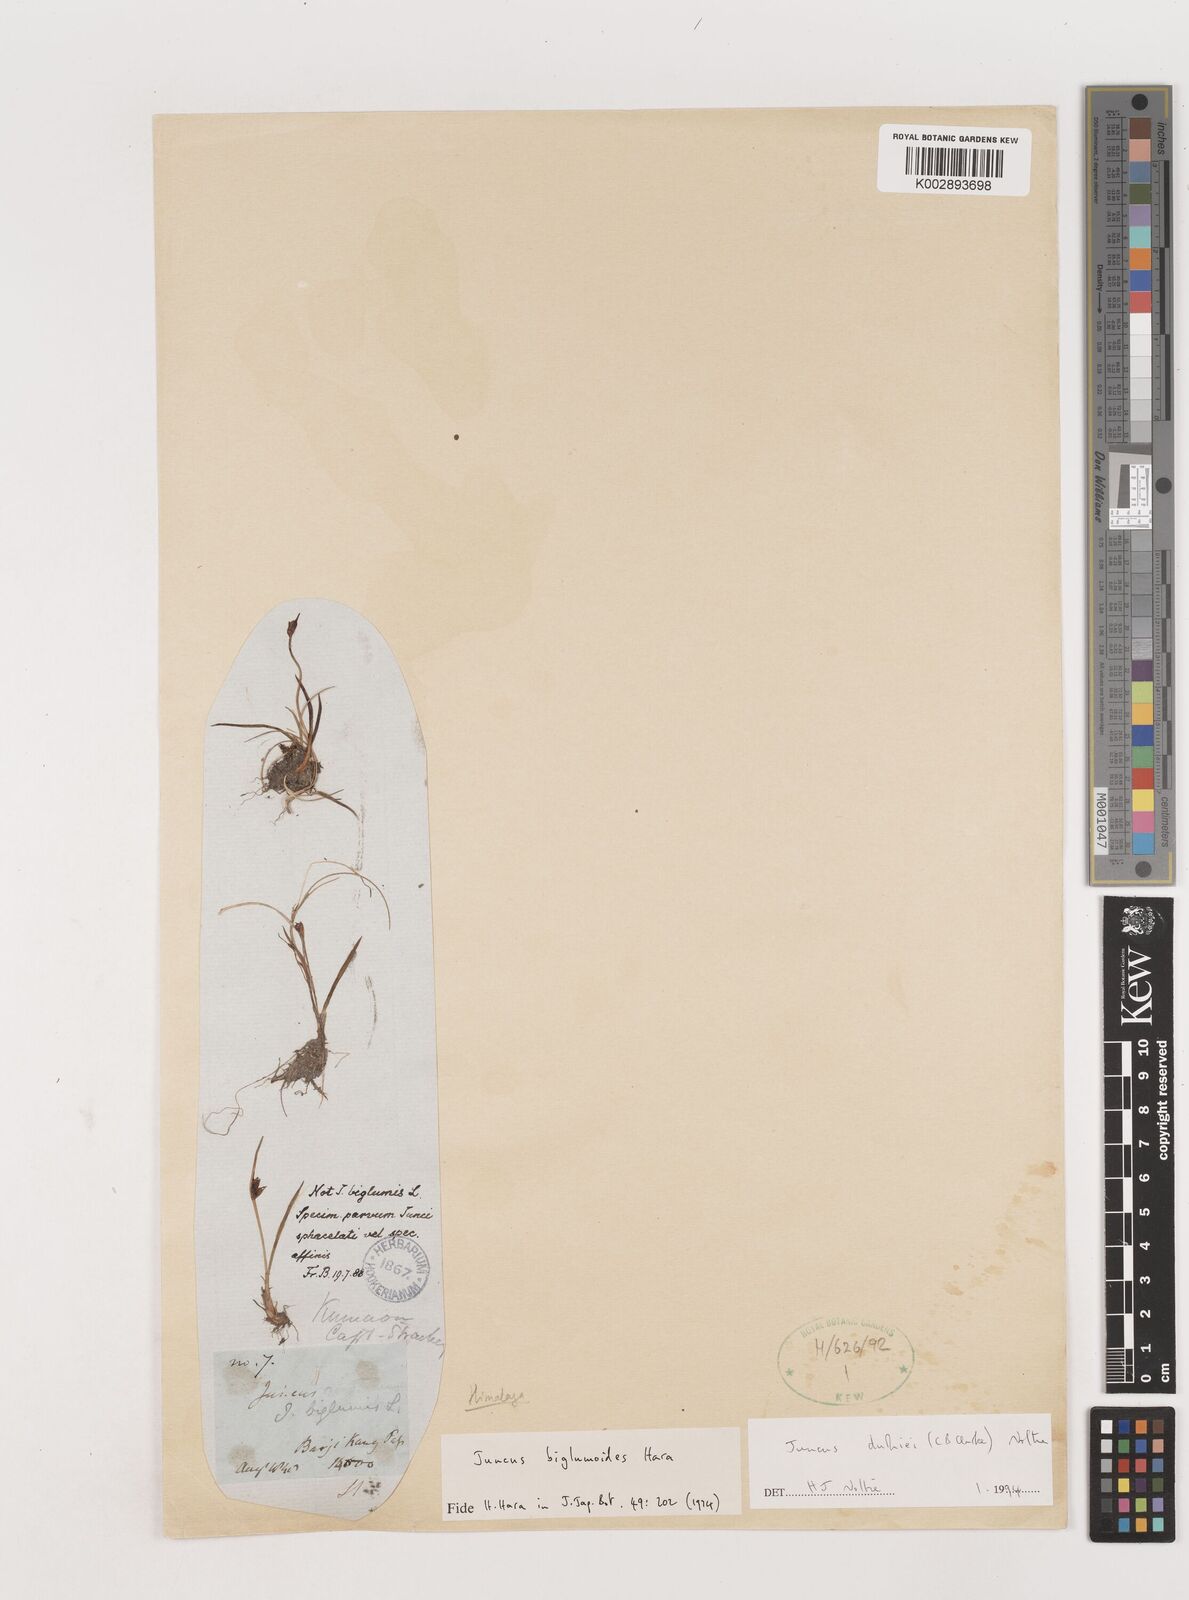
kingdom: Plantae
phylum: Tracheophyta
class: Liliopsida
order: Poales
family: Juncaceae
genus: Juncus
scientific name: Juncus duthiei
